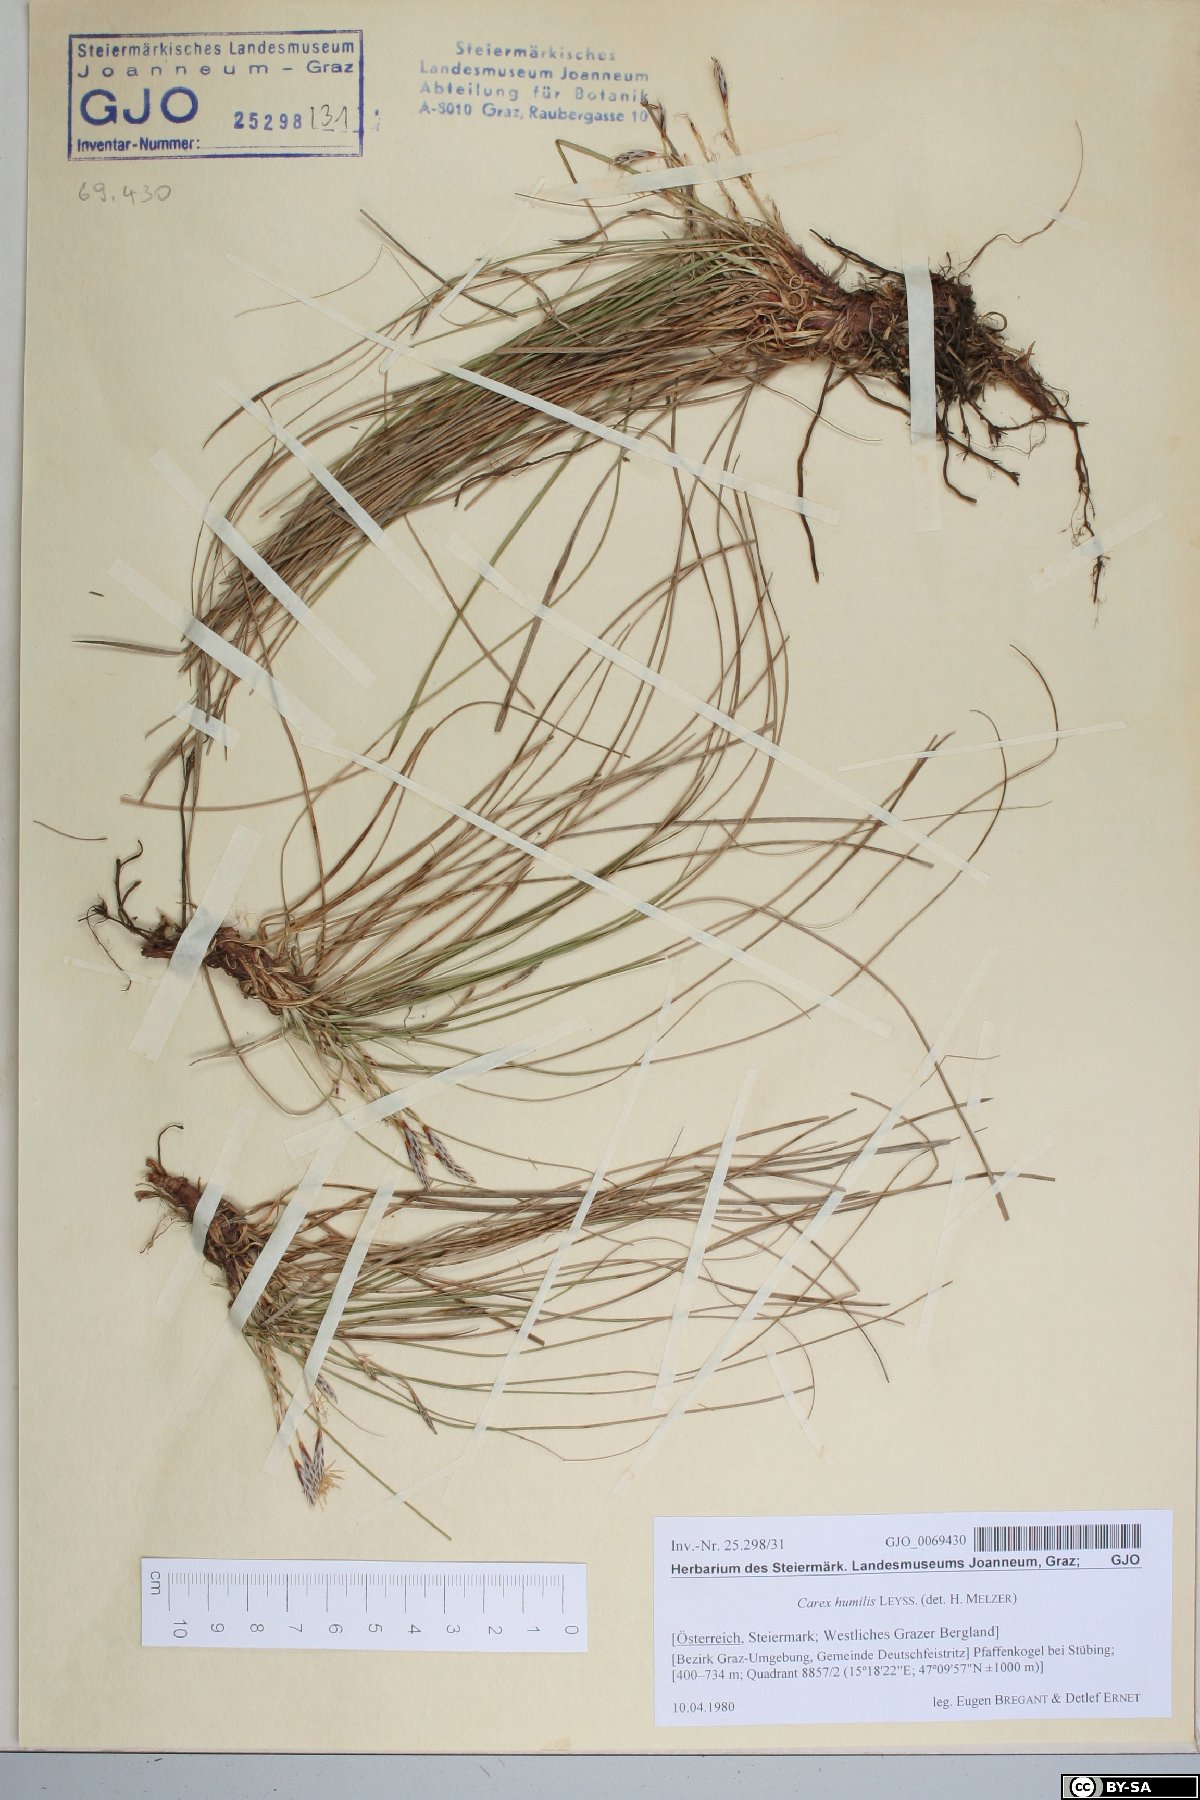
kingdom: Plantae
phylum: Tracheophyta
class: Liliopsida
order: Poales
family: Cyperaceae
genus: Carex
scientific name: Carex humilis
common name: Dwarf sedge
